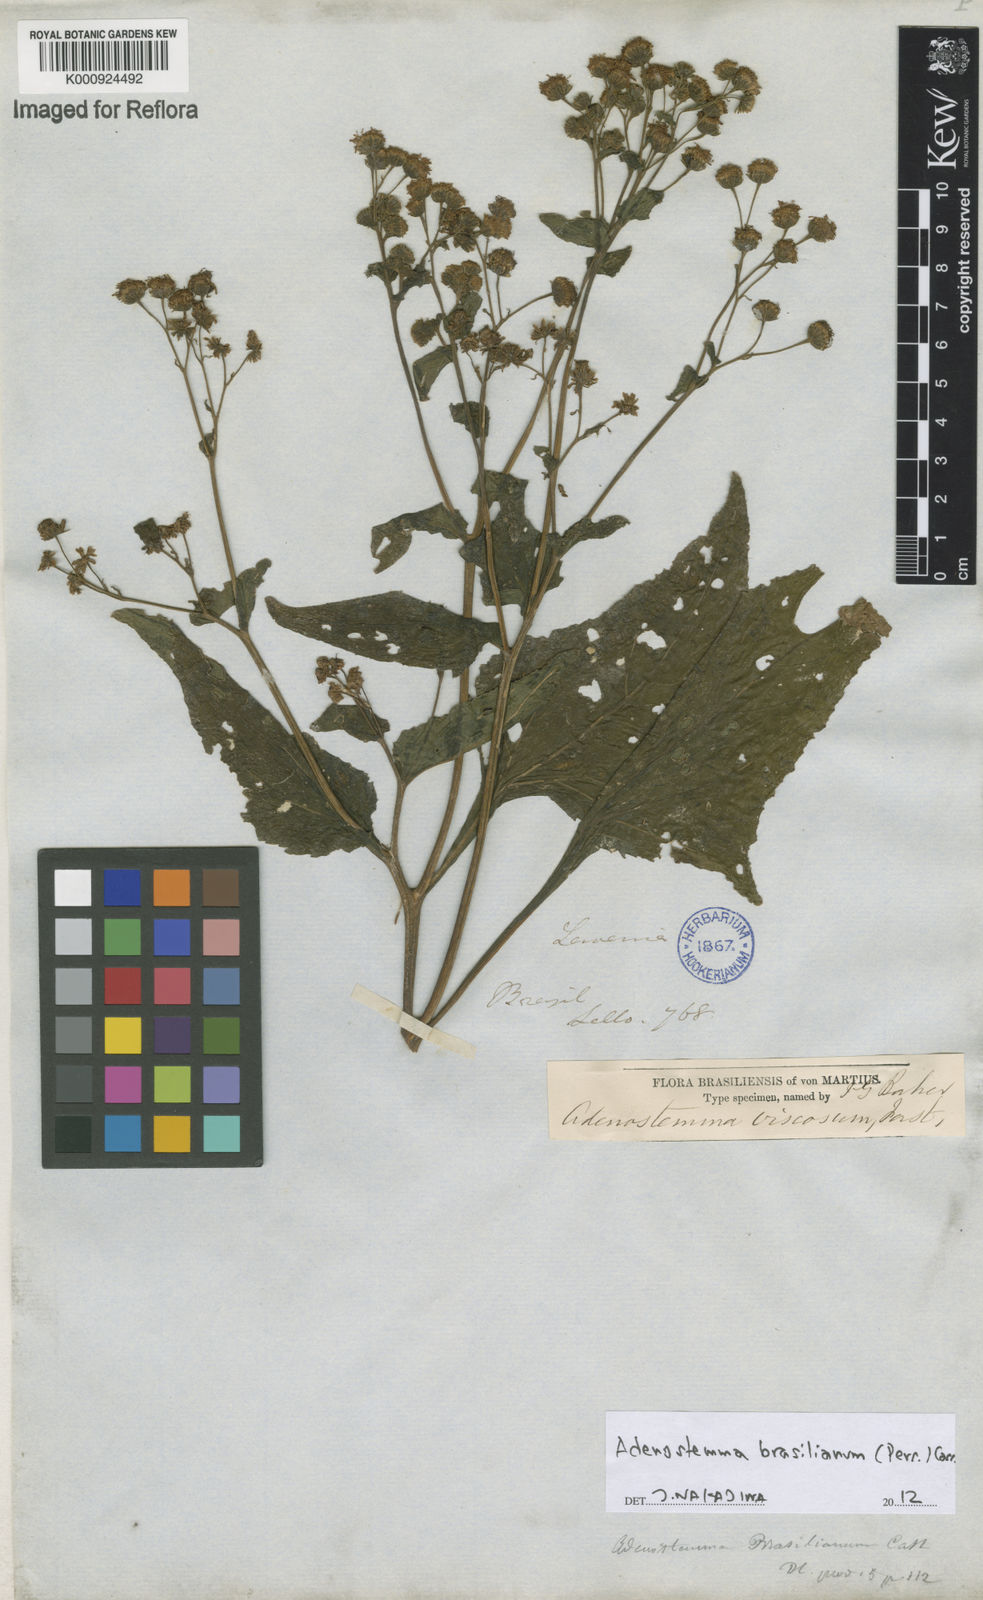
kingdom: Plantae
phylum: Tracheophyta
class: Magnoliopsida
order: Asterales
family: Asteraceae
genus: Adenostemma
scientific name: Adenostemma brasilianum
